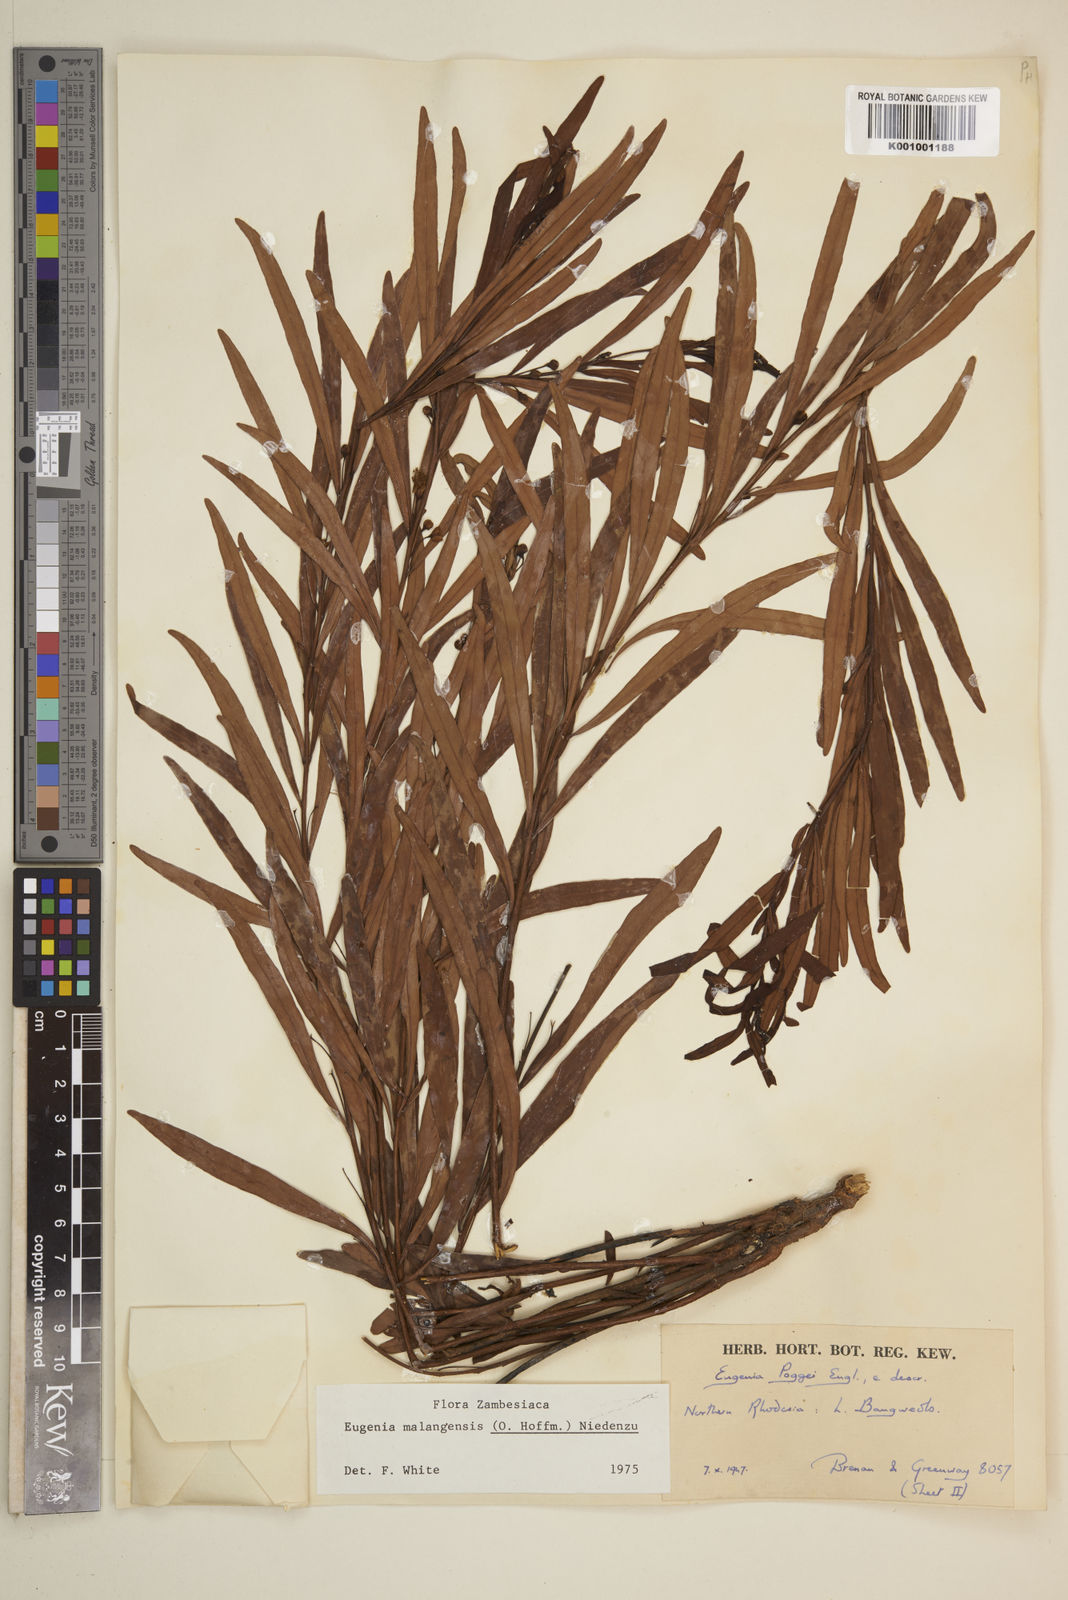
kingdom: Plantae
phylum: Tracheophyta
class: Magnoliopsida
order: Myrtales
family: Myrtaceae
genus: Eugenia
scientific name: Eugenia malangensis
